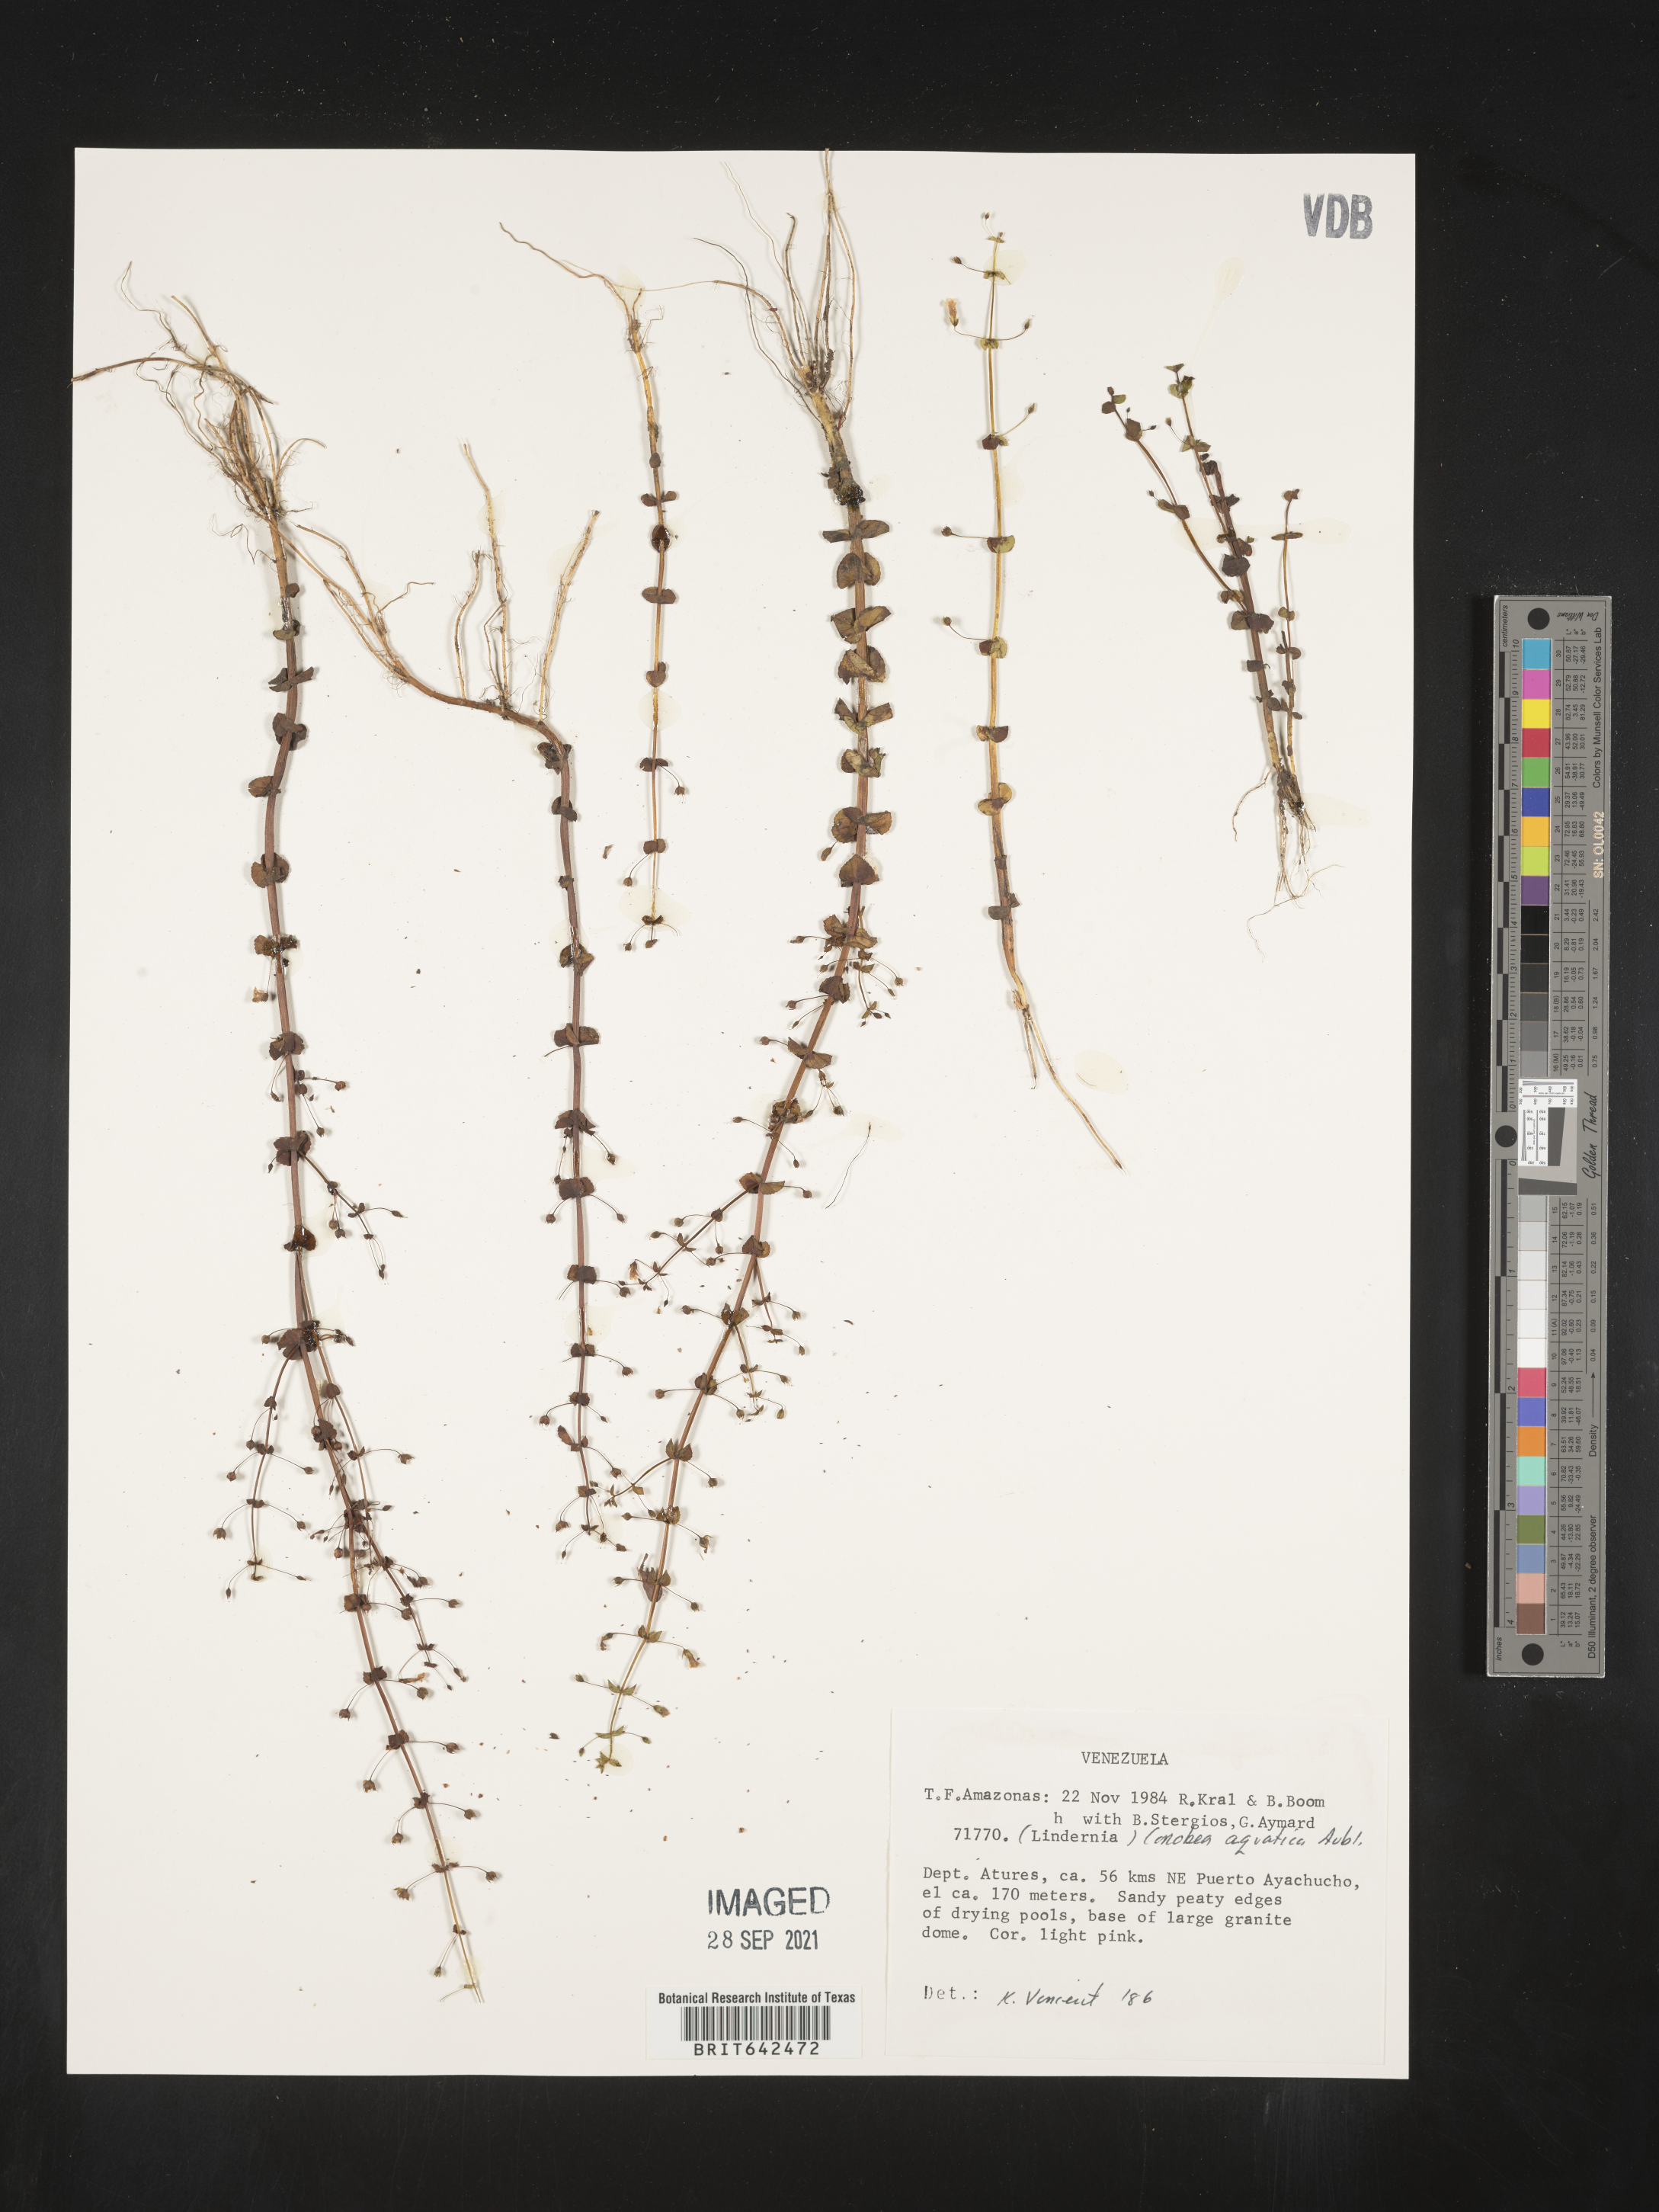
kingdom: Plantae
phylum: Tracheophyta
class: Magnoliopsida
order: Lamiales
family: Plantaginaceae
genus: Conobea
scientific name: Conobea
